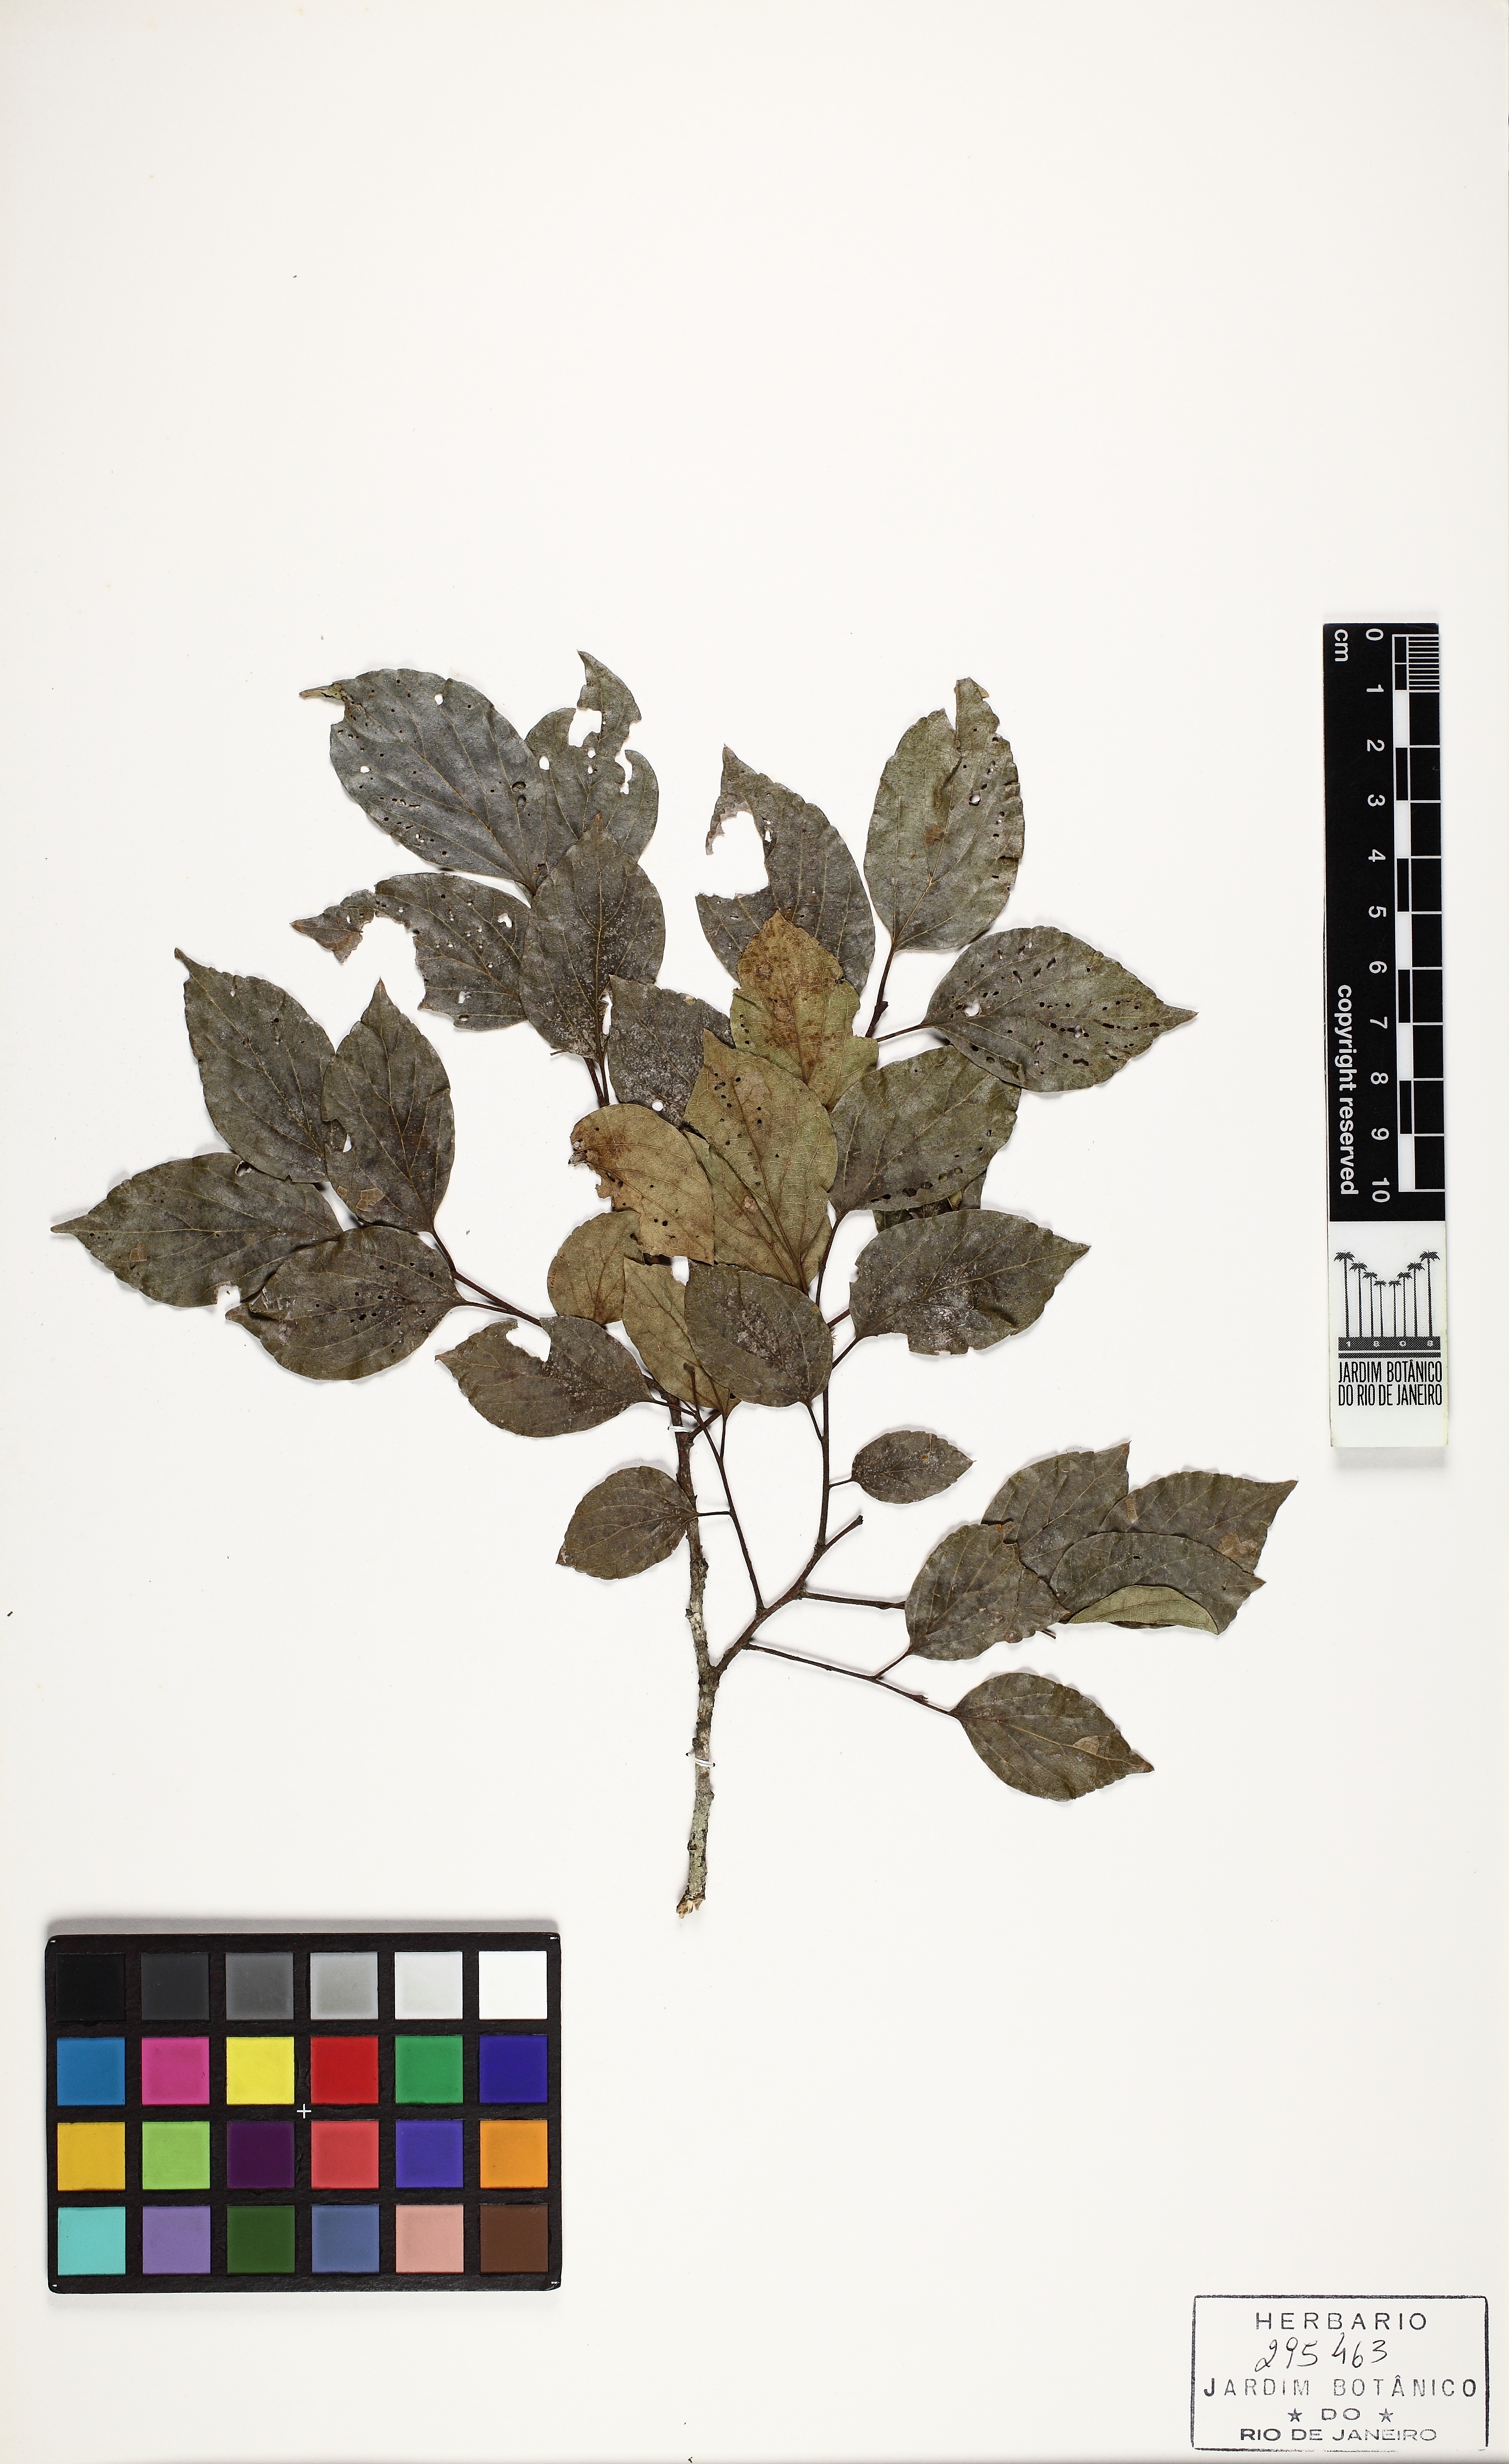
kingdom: Plantae
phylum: Tracheophyta
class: Magnoliopsida
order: Rosales
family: Cannabaceae
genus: Celtis
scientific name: Celtis sinensis
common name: Chinese hackberry
